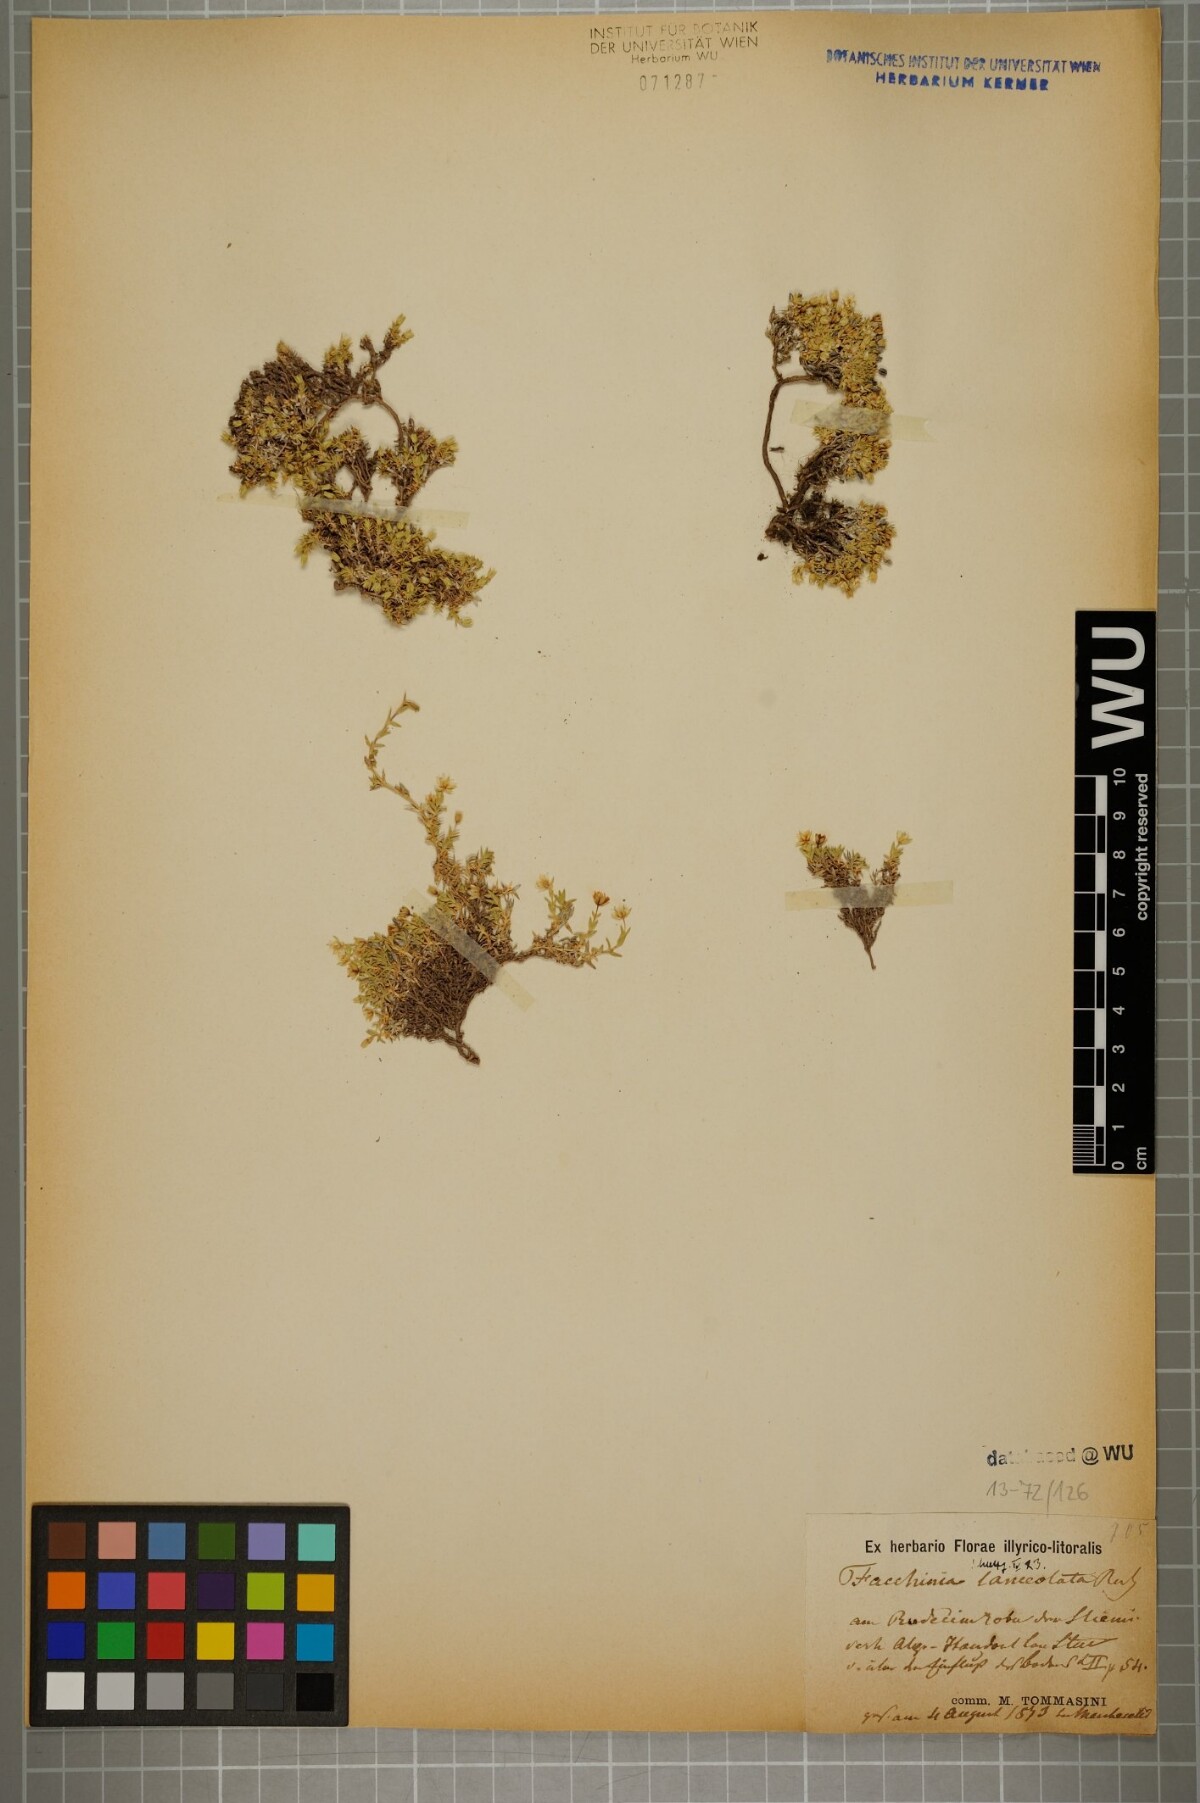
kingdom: Plantae
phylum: Tracheophyta
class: Magnoliopsida
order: Caryophyllales
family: Caryophyllaceae
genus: Facchinia
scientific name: Facchinia rupestris
